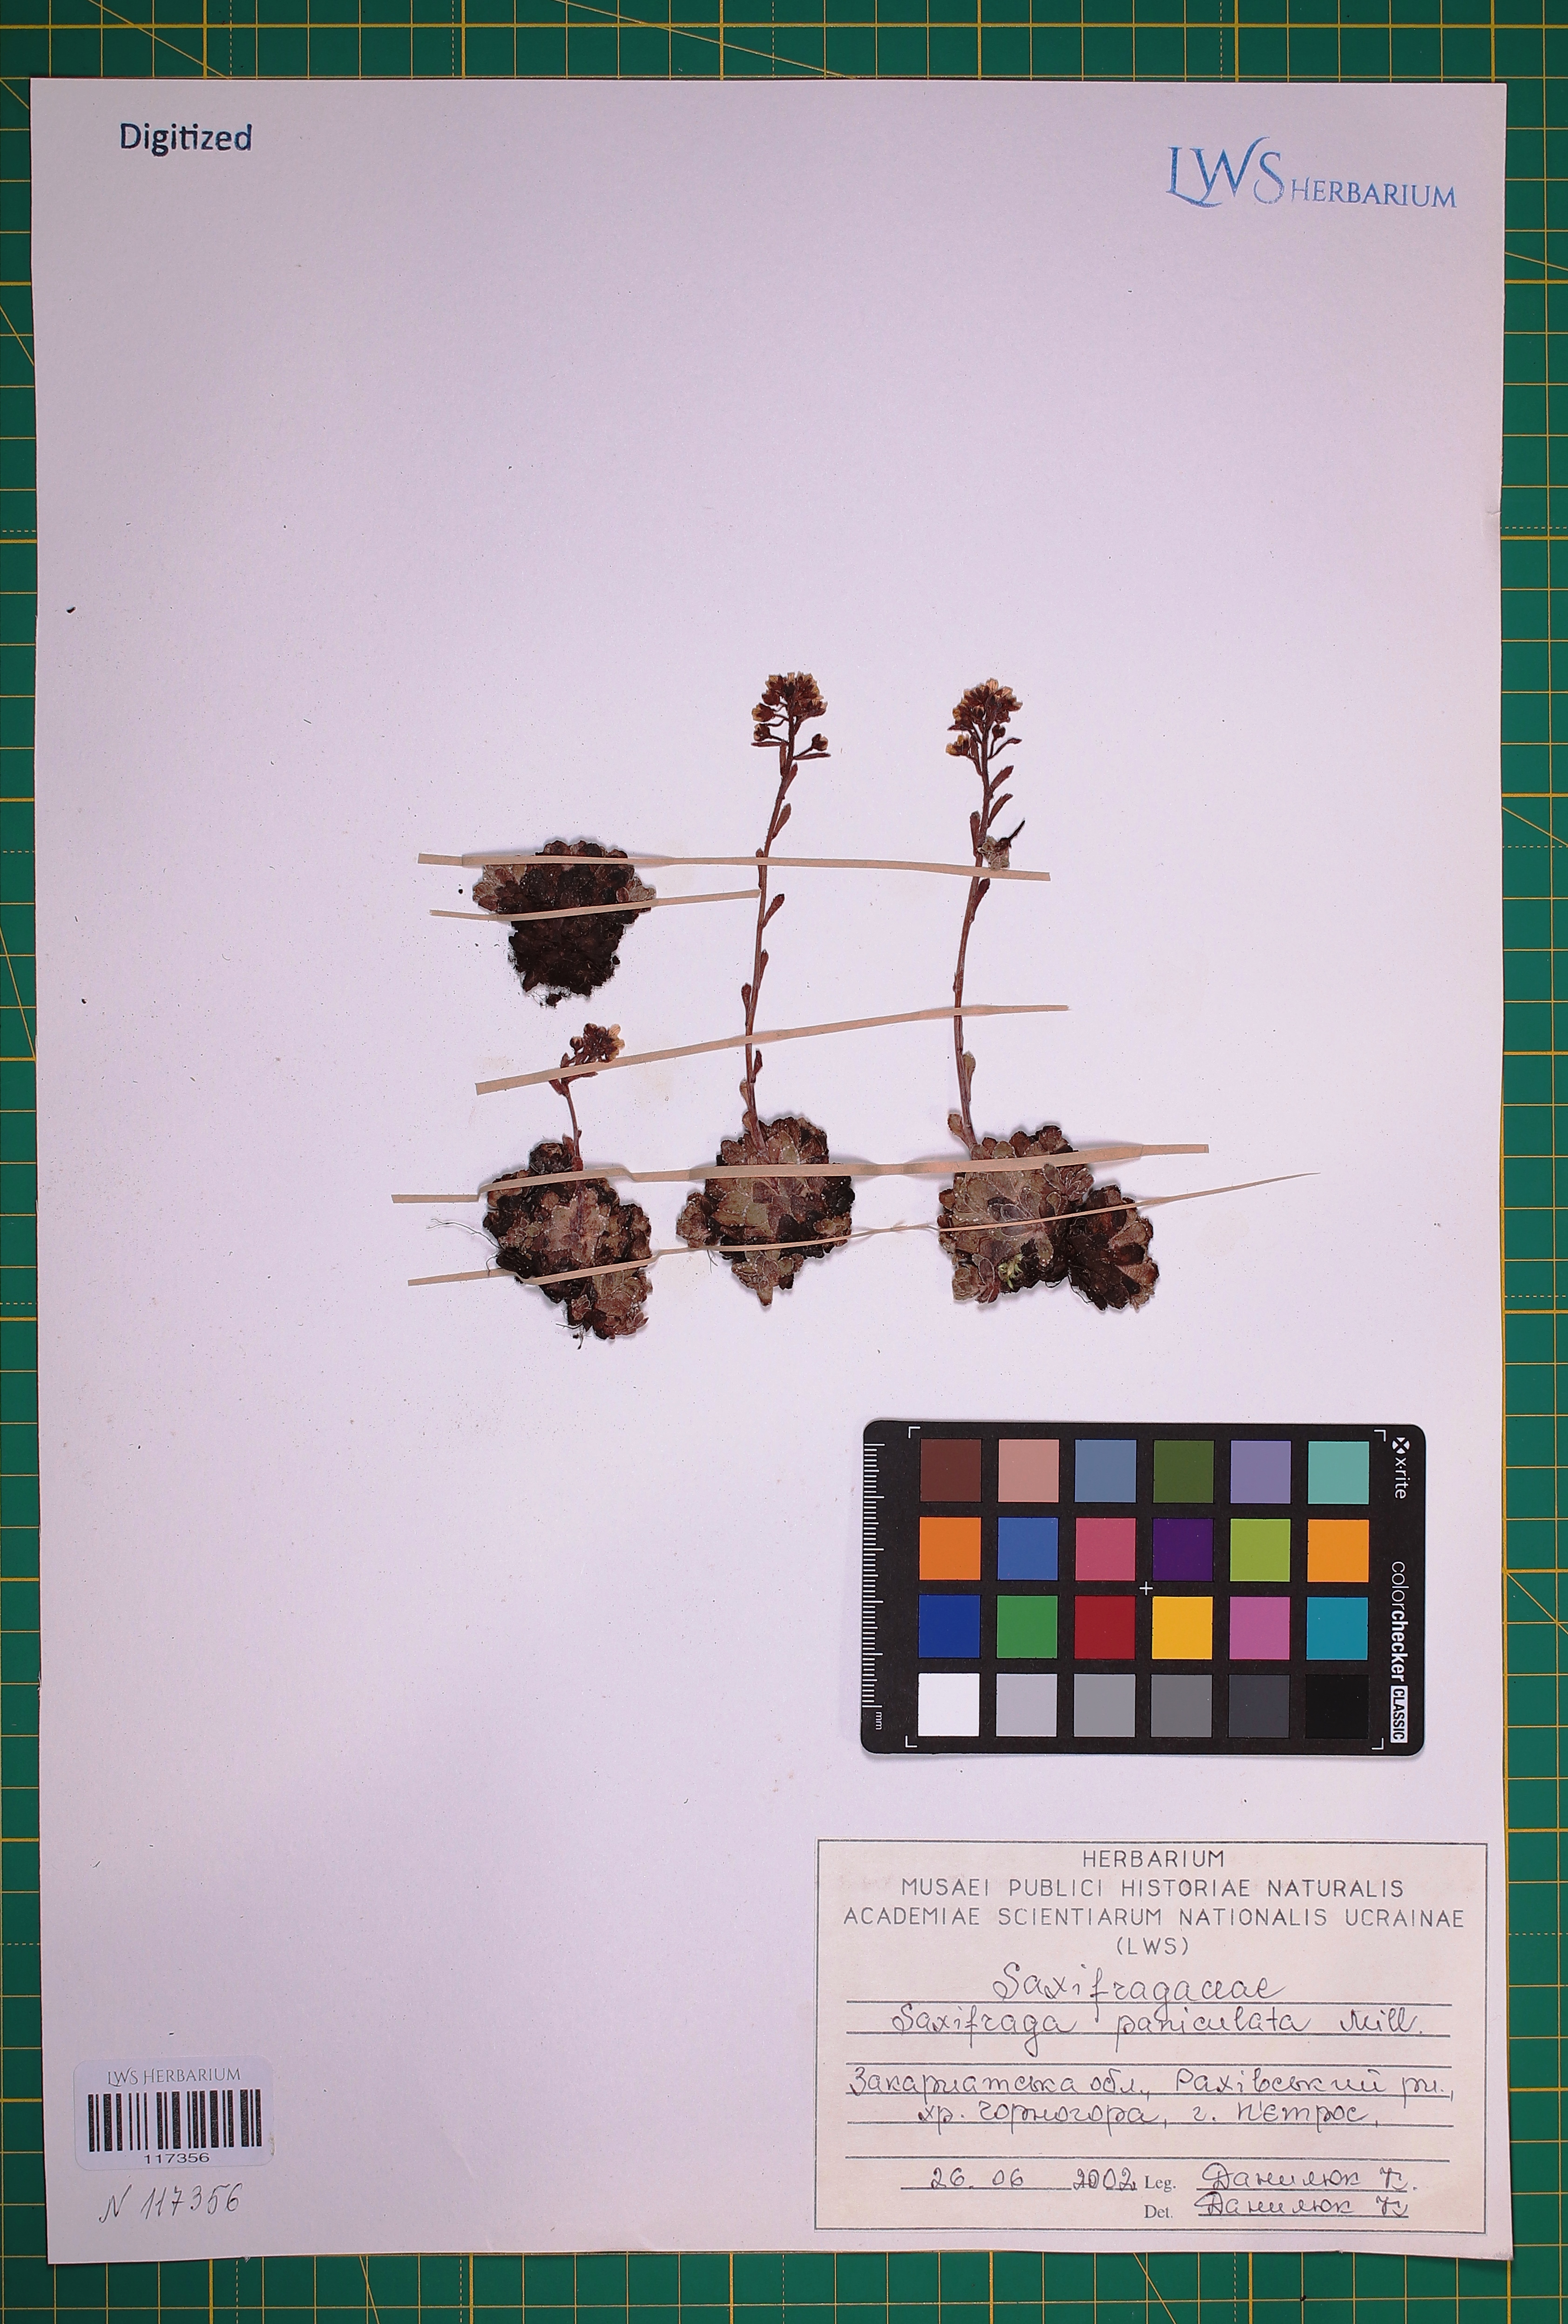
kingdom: Plantae
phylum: Tracheophyta
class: Magnoliopsida
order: Saxifragales
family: Saxifragaceae
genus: Saxifraga
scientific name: Saxifraga paniculata
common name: Livelong saxifrage
